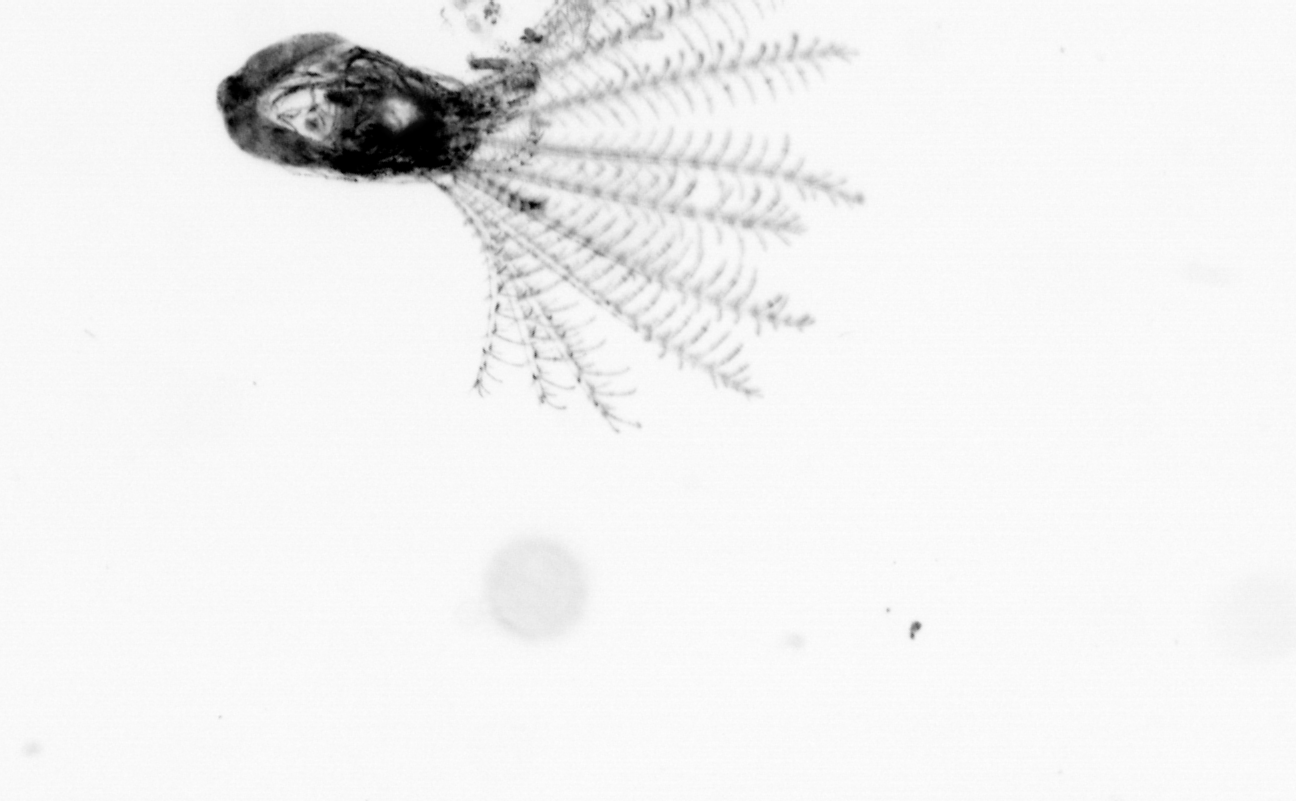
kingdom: Animalia
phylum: Arthropoda
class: Maxillopoda
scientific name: Maxillopoda
